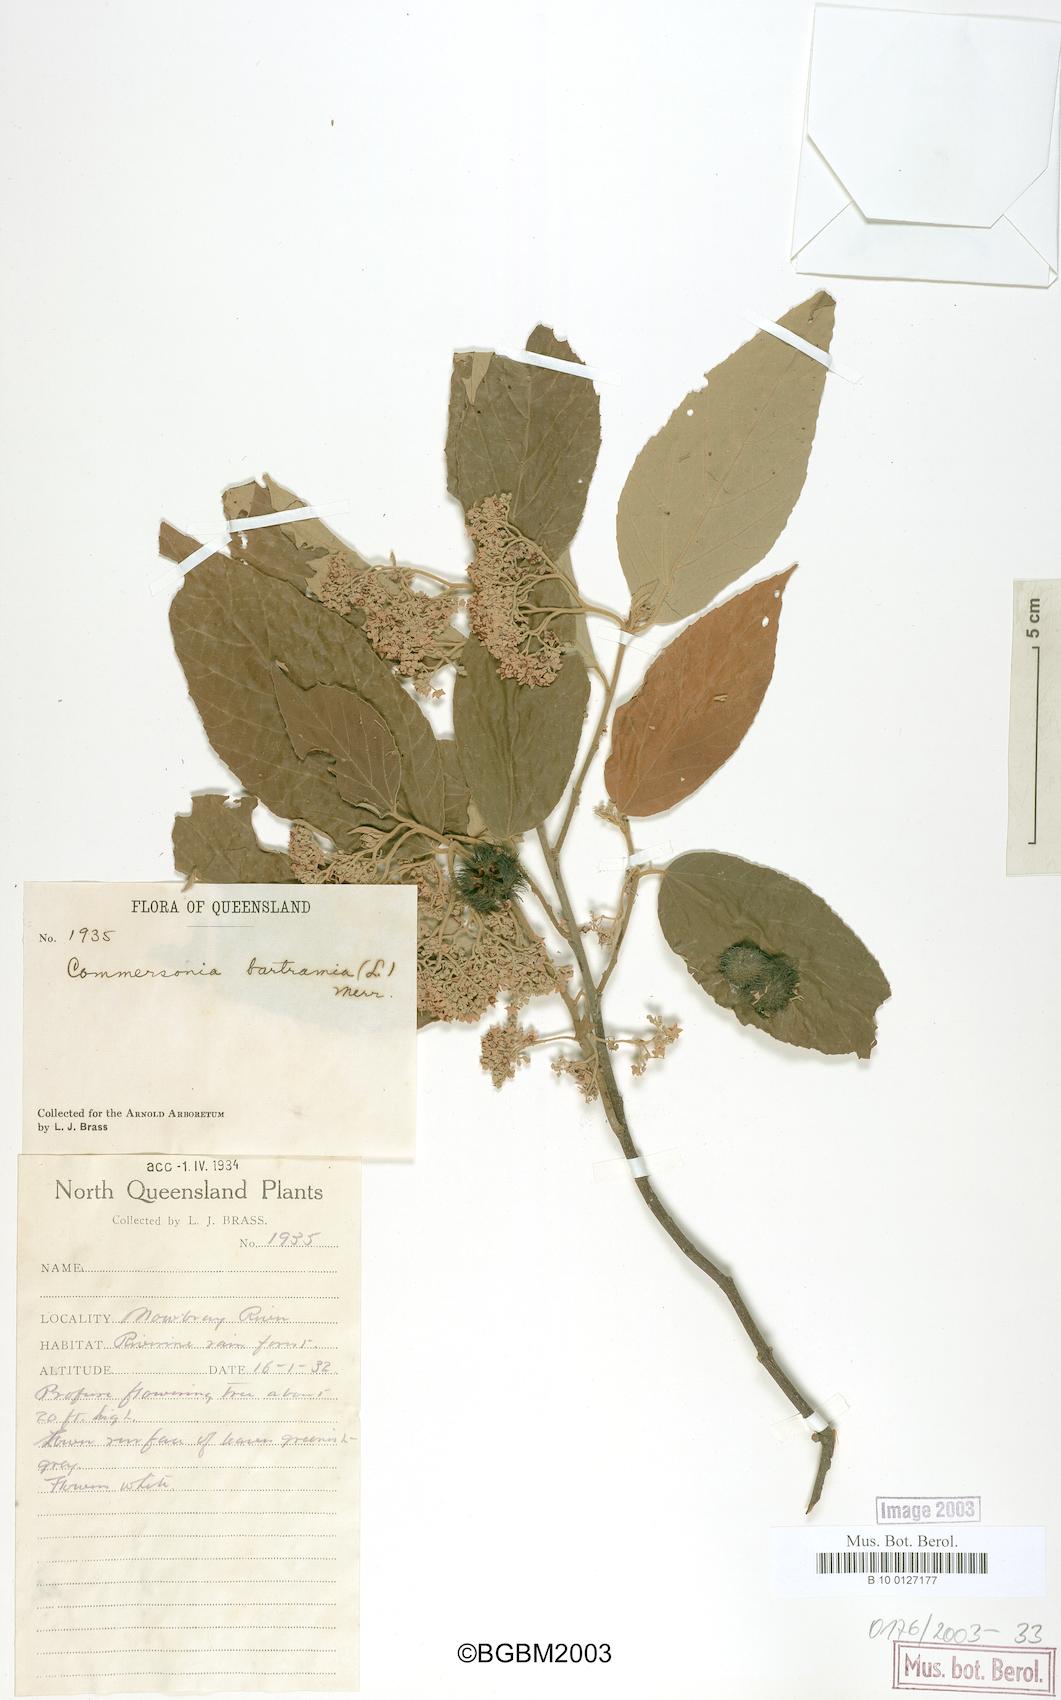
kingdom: Plantae
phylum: Tracheophyta
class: Magnoliopsida
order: Malvales
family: Malvaceae
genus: Commersonia
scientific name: Commersonia bartramia
